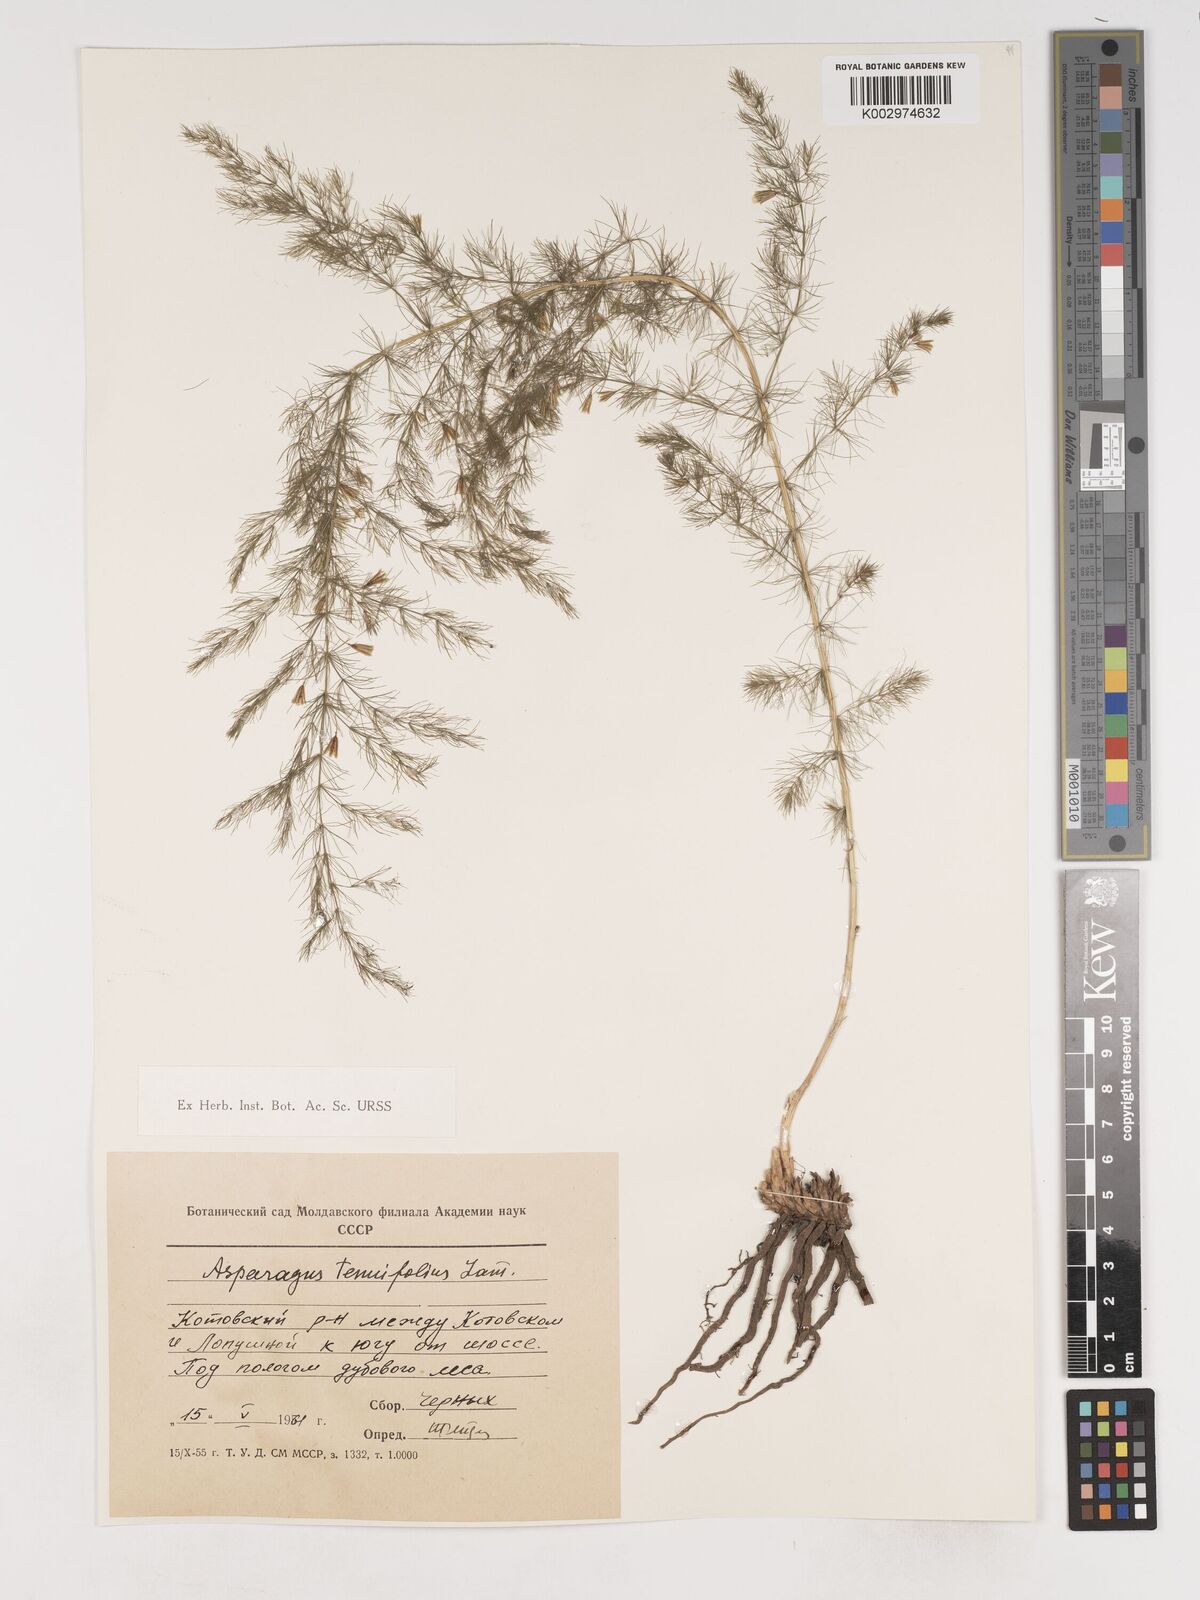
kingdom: Plantae
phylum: Tracheophyta
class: Liliopsida
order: Asparagales
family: Asparagaceae
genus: Asparagus
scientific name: Asparagus tenuifolius
